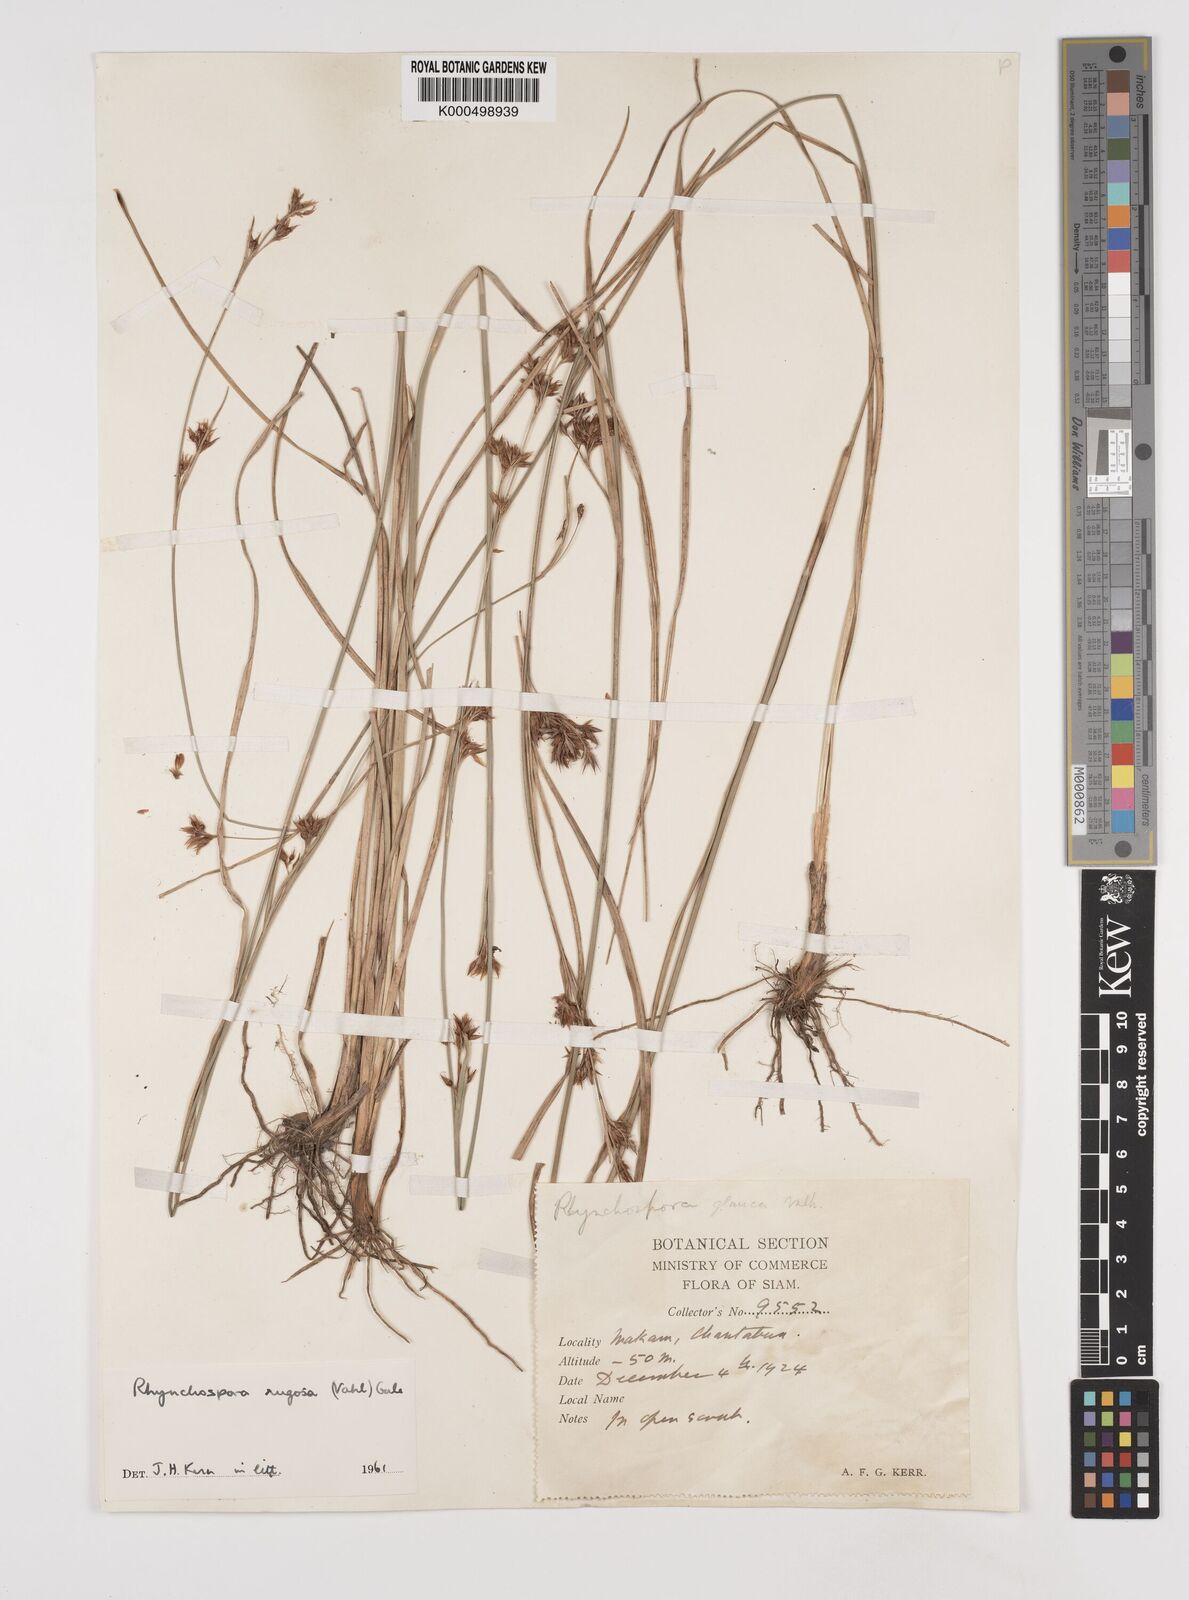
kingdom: Plantae
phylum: Tracheophyta
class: Liliopsida
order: Poales
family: Cyperaceae
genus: Rhynchospora
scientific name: Rhynchospora rugosa
